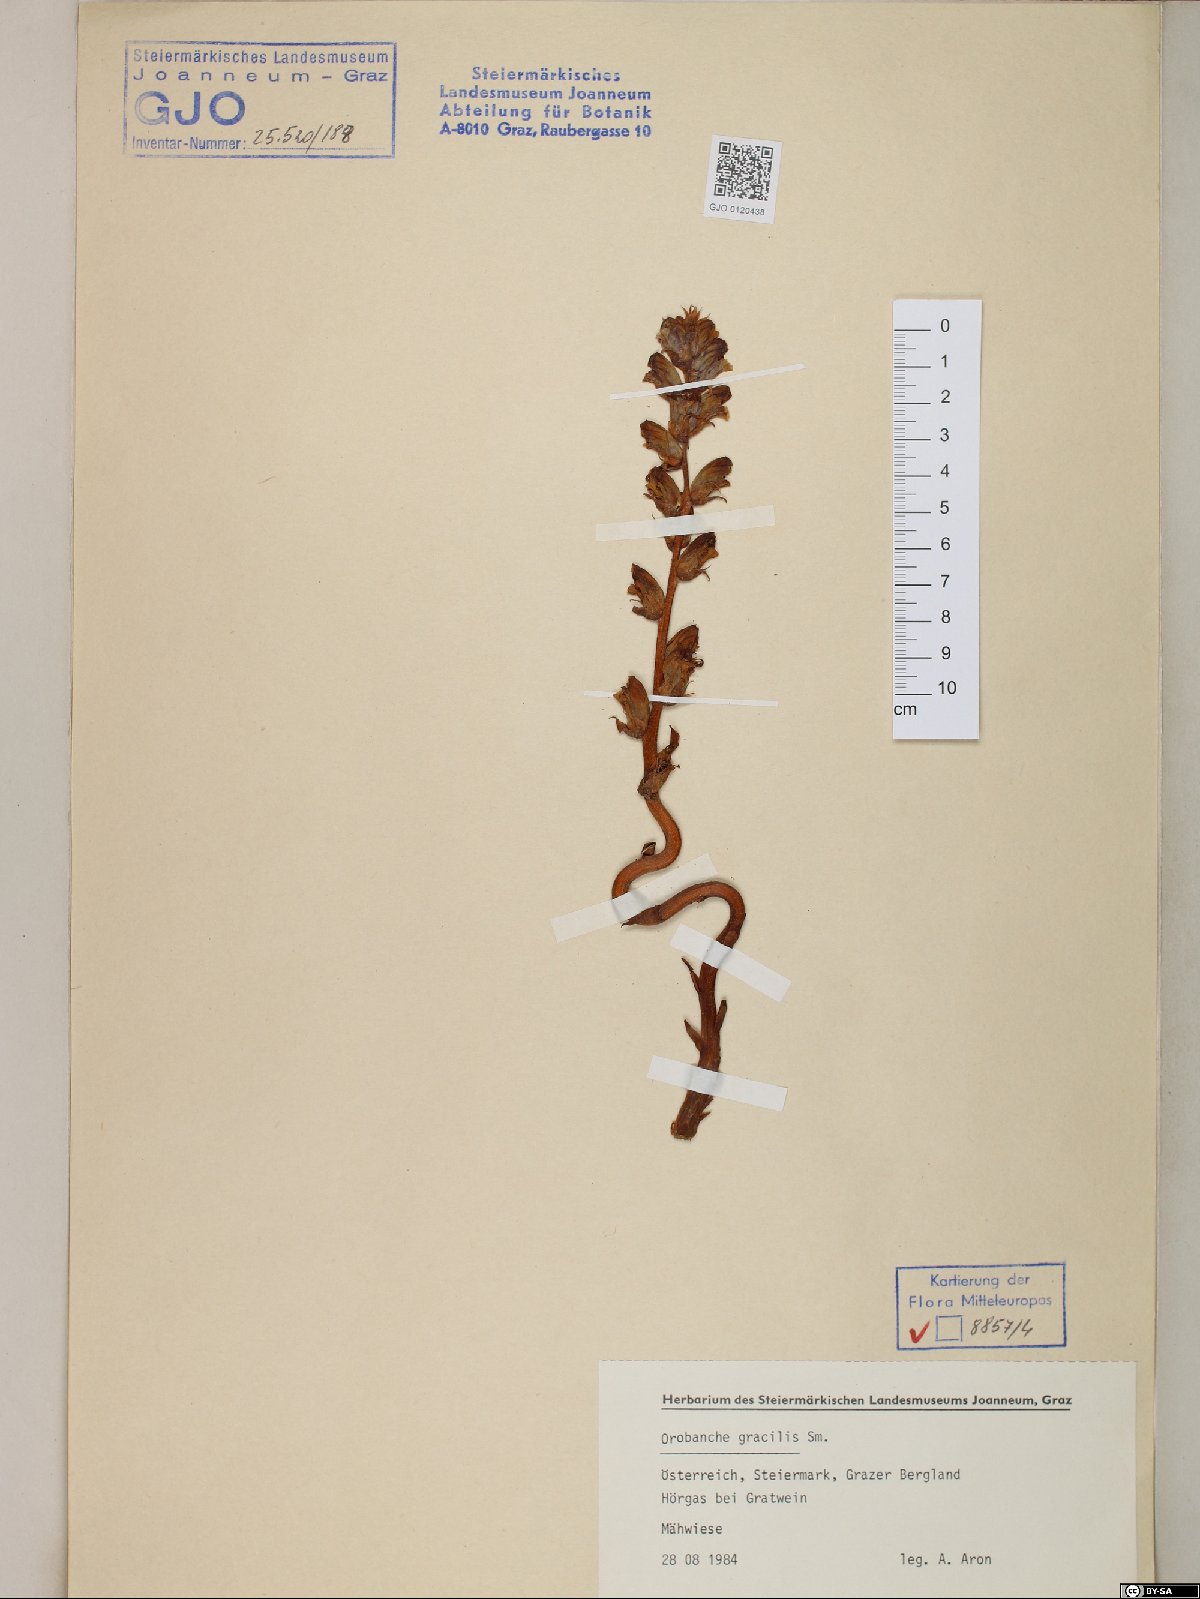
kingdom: Plantae
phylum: Tracheophyta
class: Magnoliopsida
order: Lamiales
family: Orobanchaceae
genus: Orobanche
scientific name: Orobanche gracilis
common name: Slender broomrape
